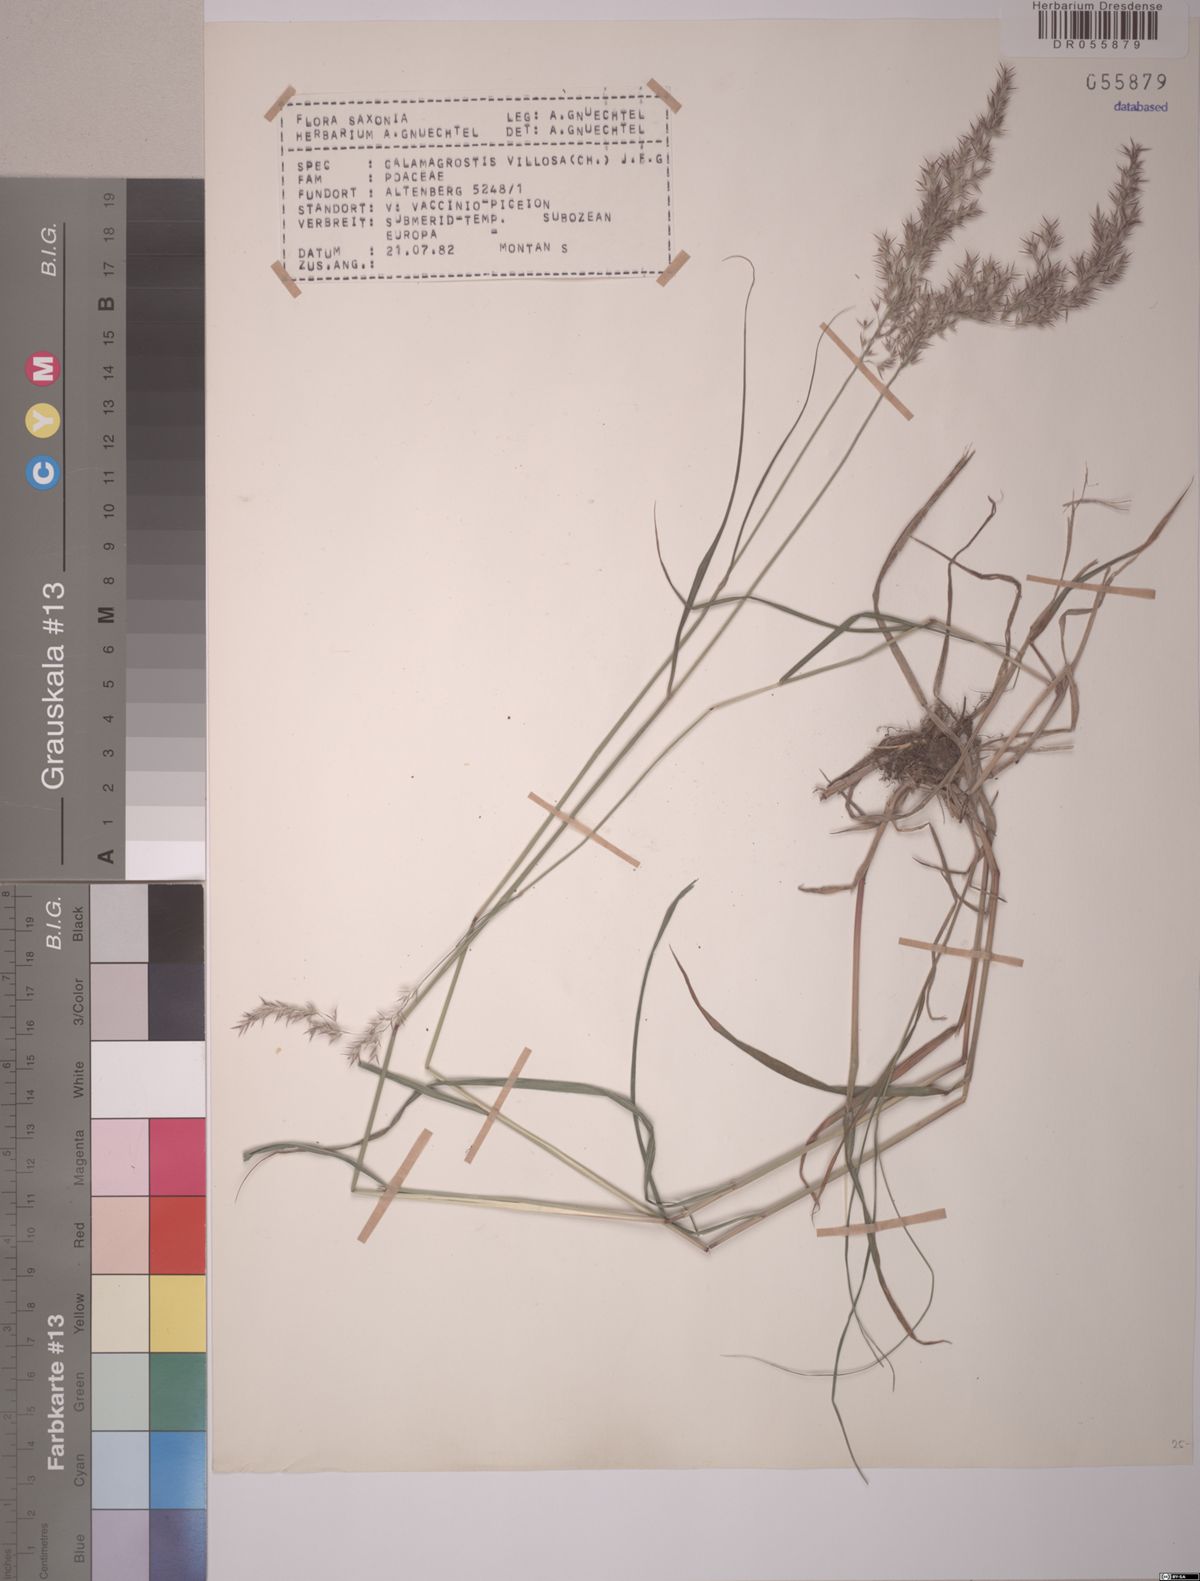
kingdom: Plantae
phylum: Tracheophyta
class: Liliopsida
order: Poales
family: Poaceae
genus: Calamagrostis
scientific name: Calamagrostis villosa
